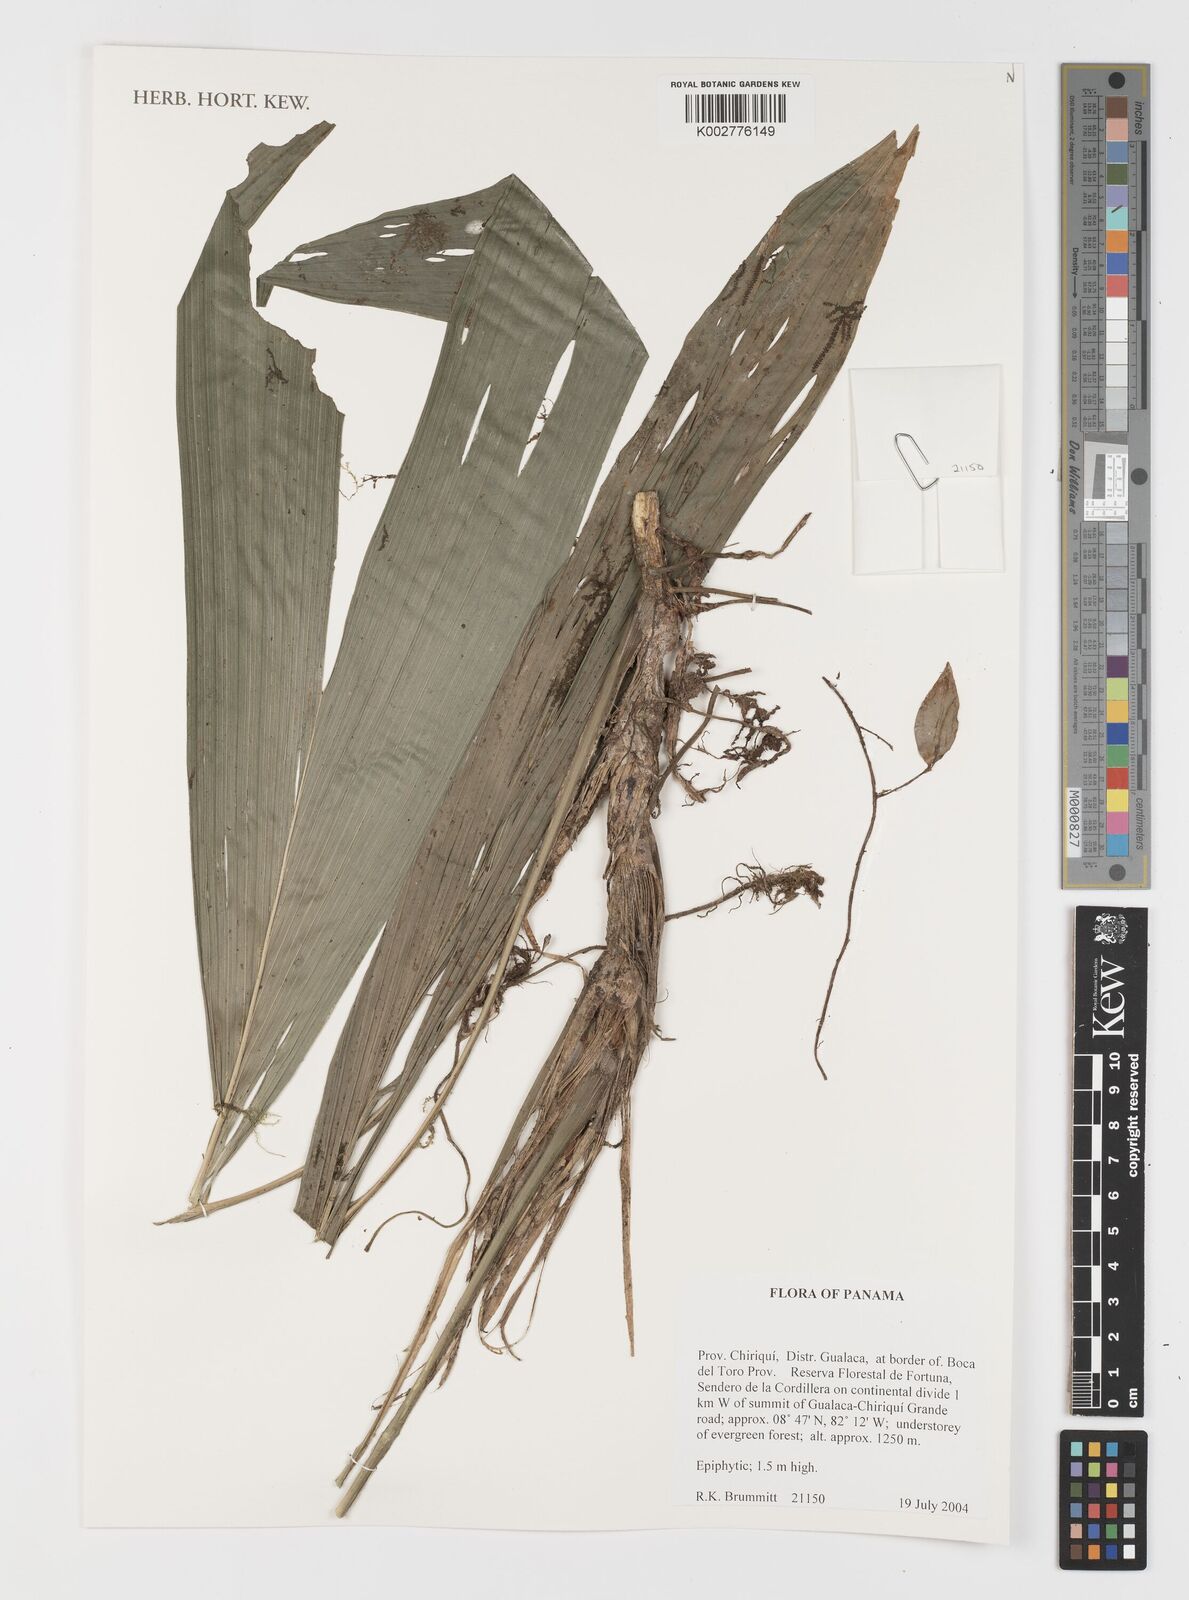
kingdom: Plantae
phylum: Tracheophyta
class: Liliopsida
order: Pandanales
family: Cyclanthaceae
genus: Evodianthus
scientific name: Evodianthus funifer
